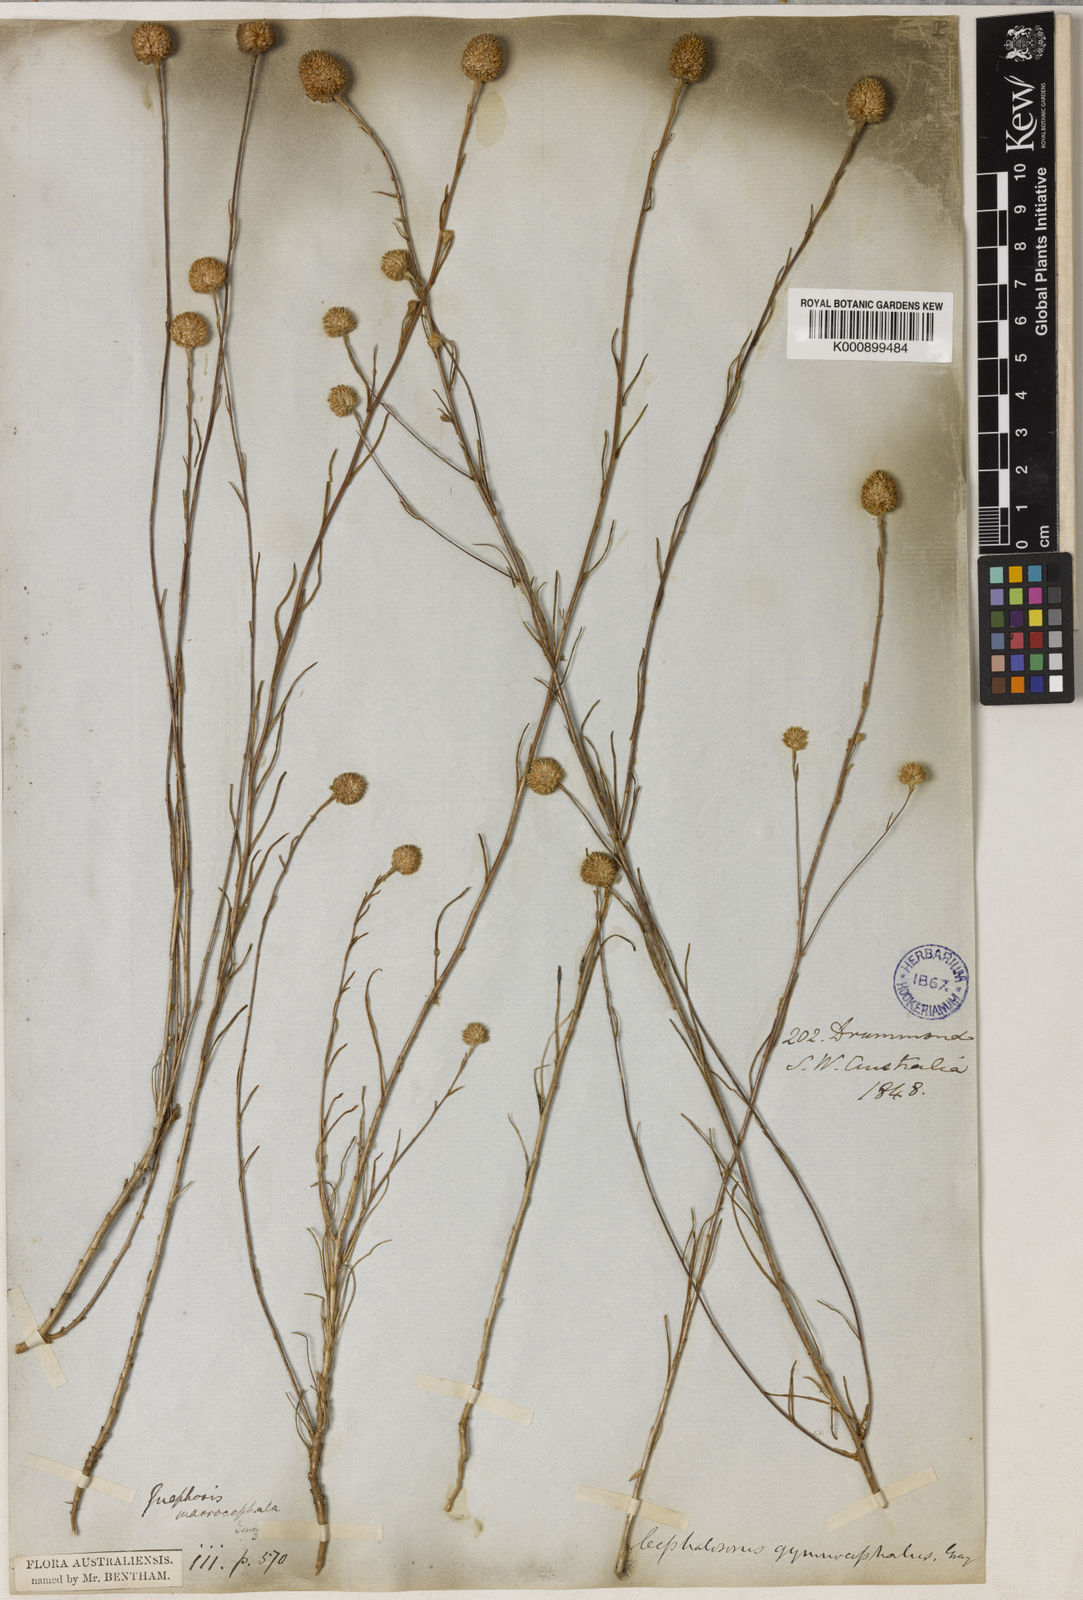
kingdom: Plantae
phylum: Tracheophyta
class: Magnoliopsida
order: Asterales
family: Asteraceae
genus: Gnephosis
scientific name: Gnephosis macrocephala
